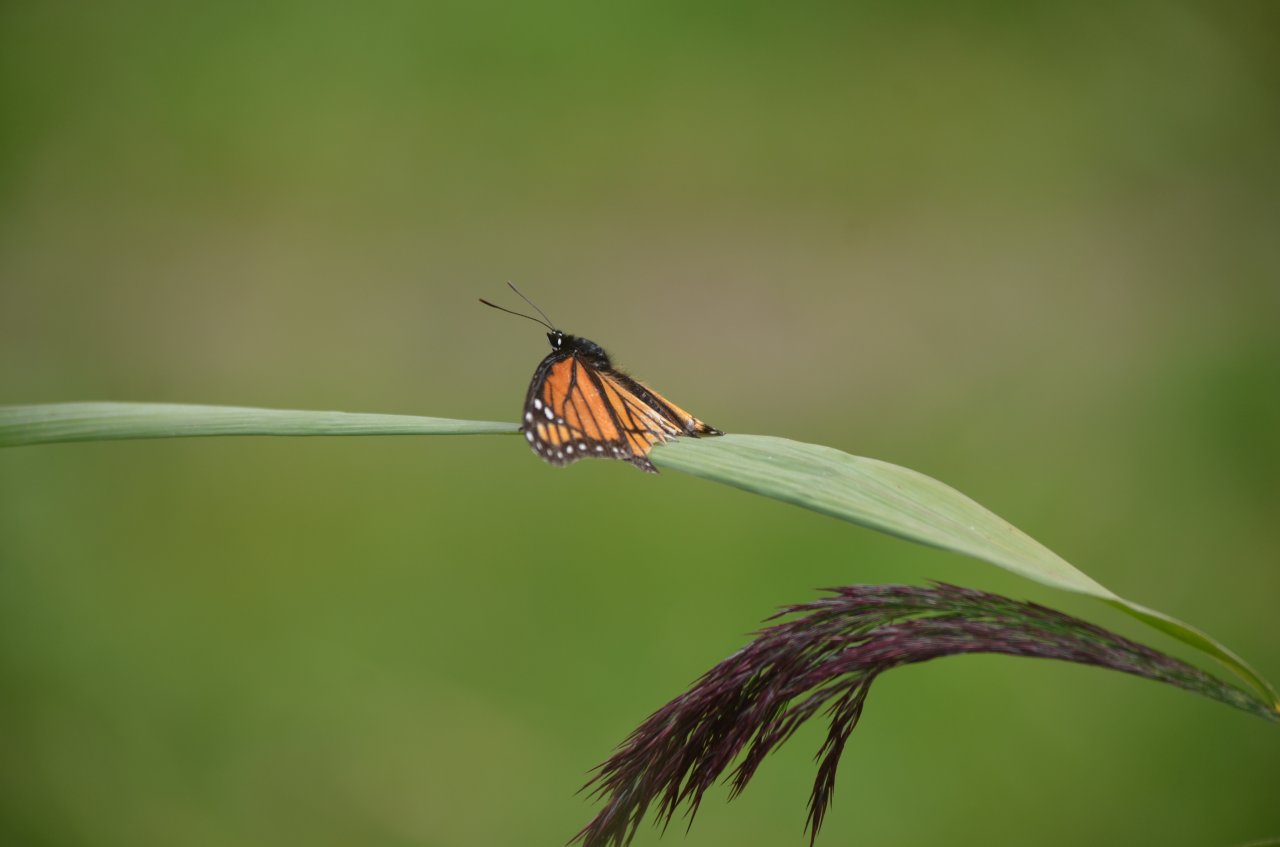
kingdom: Animalia
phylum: Arthropoda
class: Insecta
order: Lepidoptera
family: Nymphalidae
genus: Limenitis
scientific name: Limenitis archippus
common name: Viceroy
